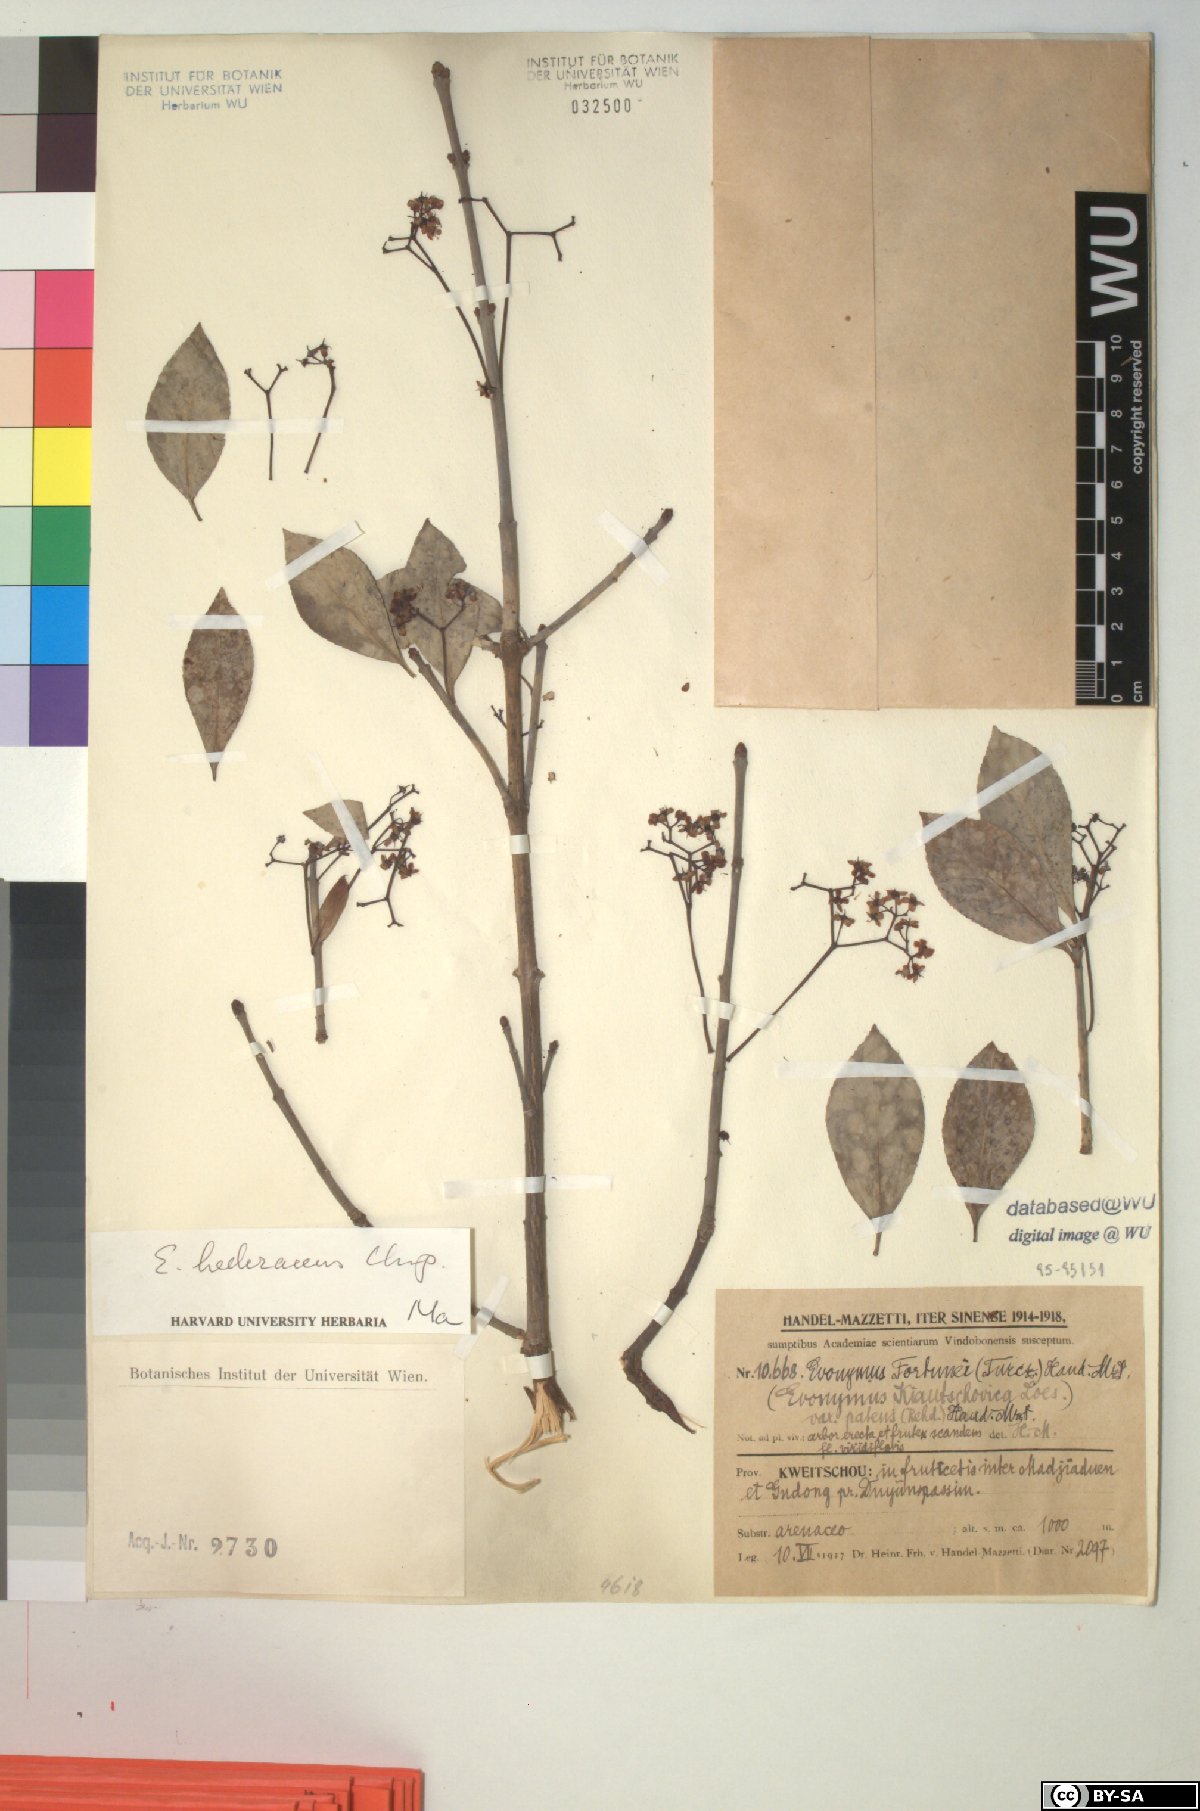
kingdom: Plantae
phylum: Tracheophyta
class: Magnoliopsida
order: Celastrales
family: Celastraceae
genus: Euonymus
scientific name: Euonymus fortunei
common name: Climbing euonymus
